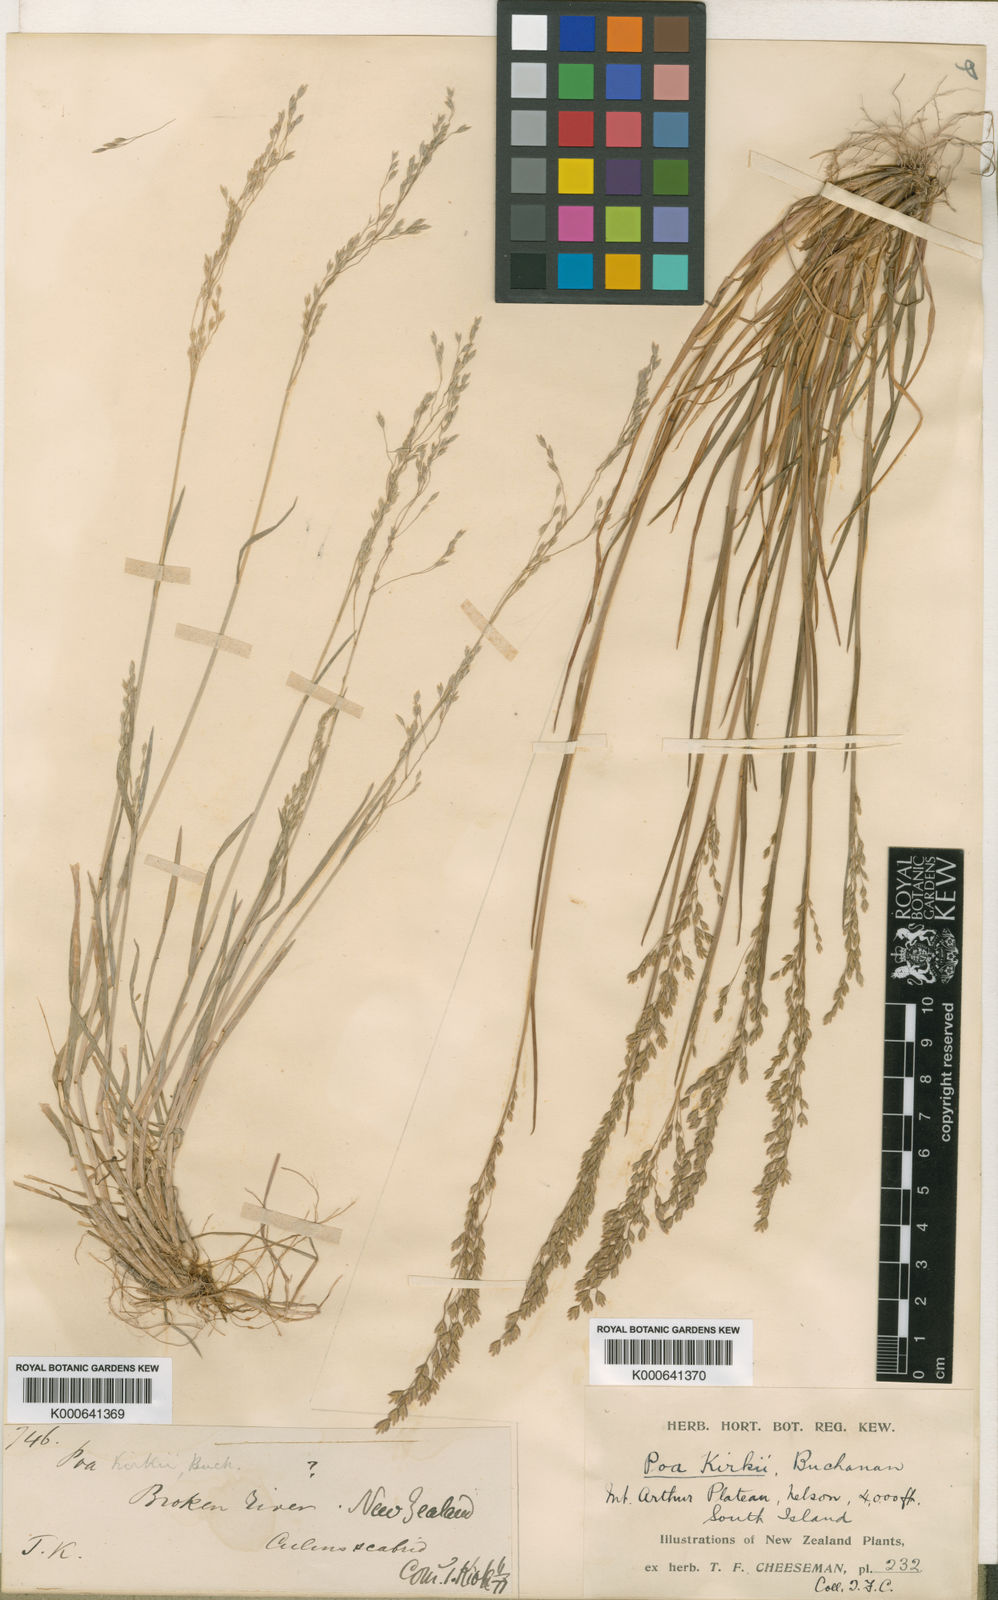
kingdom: Plantae
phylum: Tracheophyta
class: Liliopsida
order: Poales
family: Poaceae
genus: Poa
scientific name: Poa kirkii
